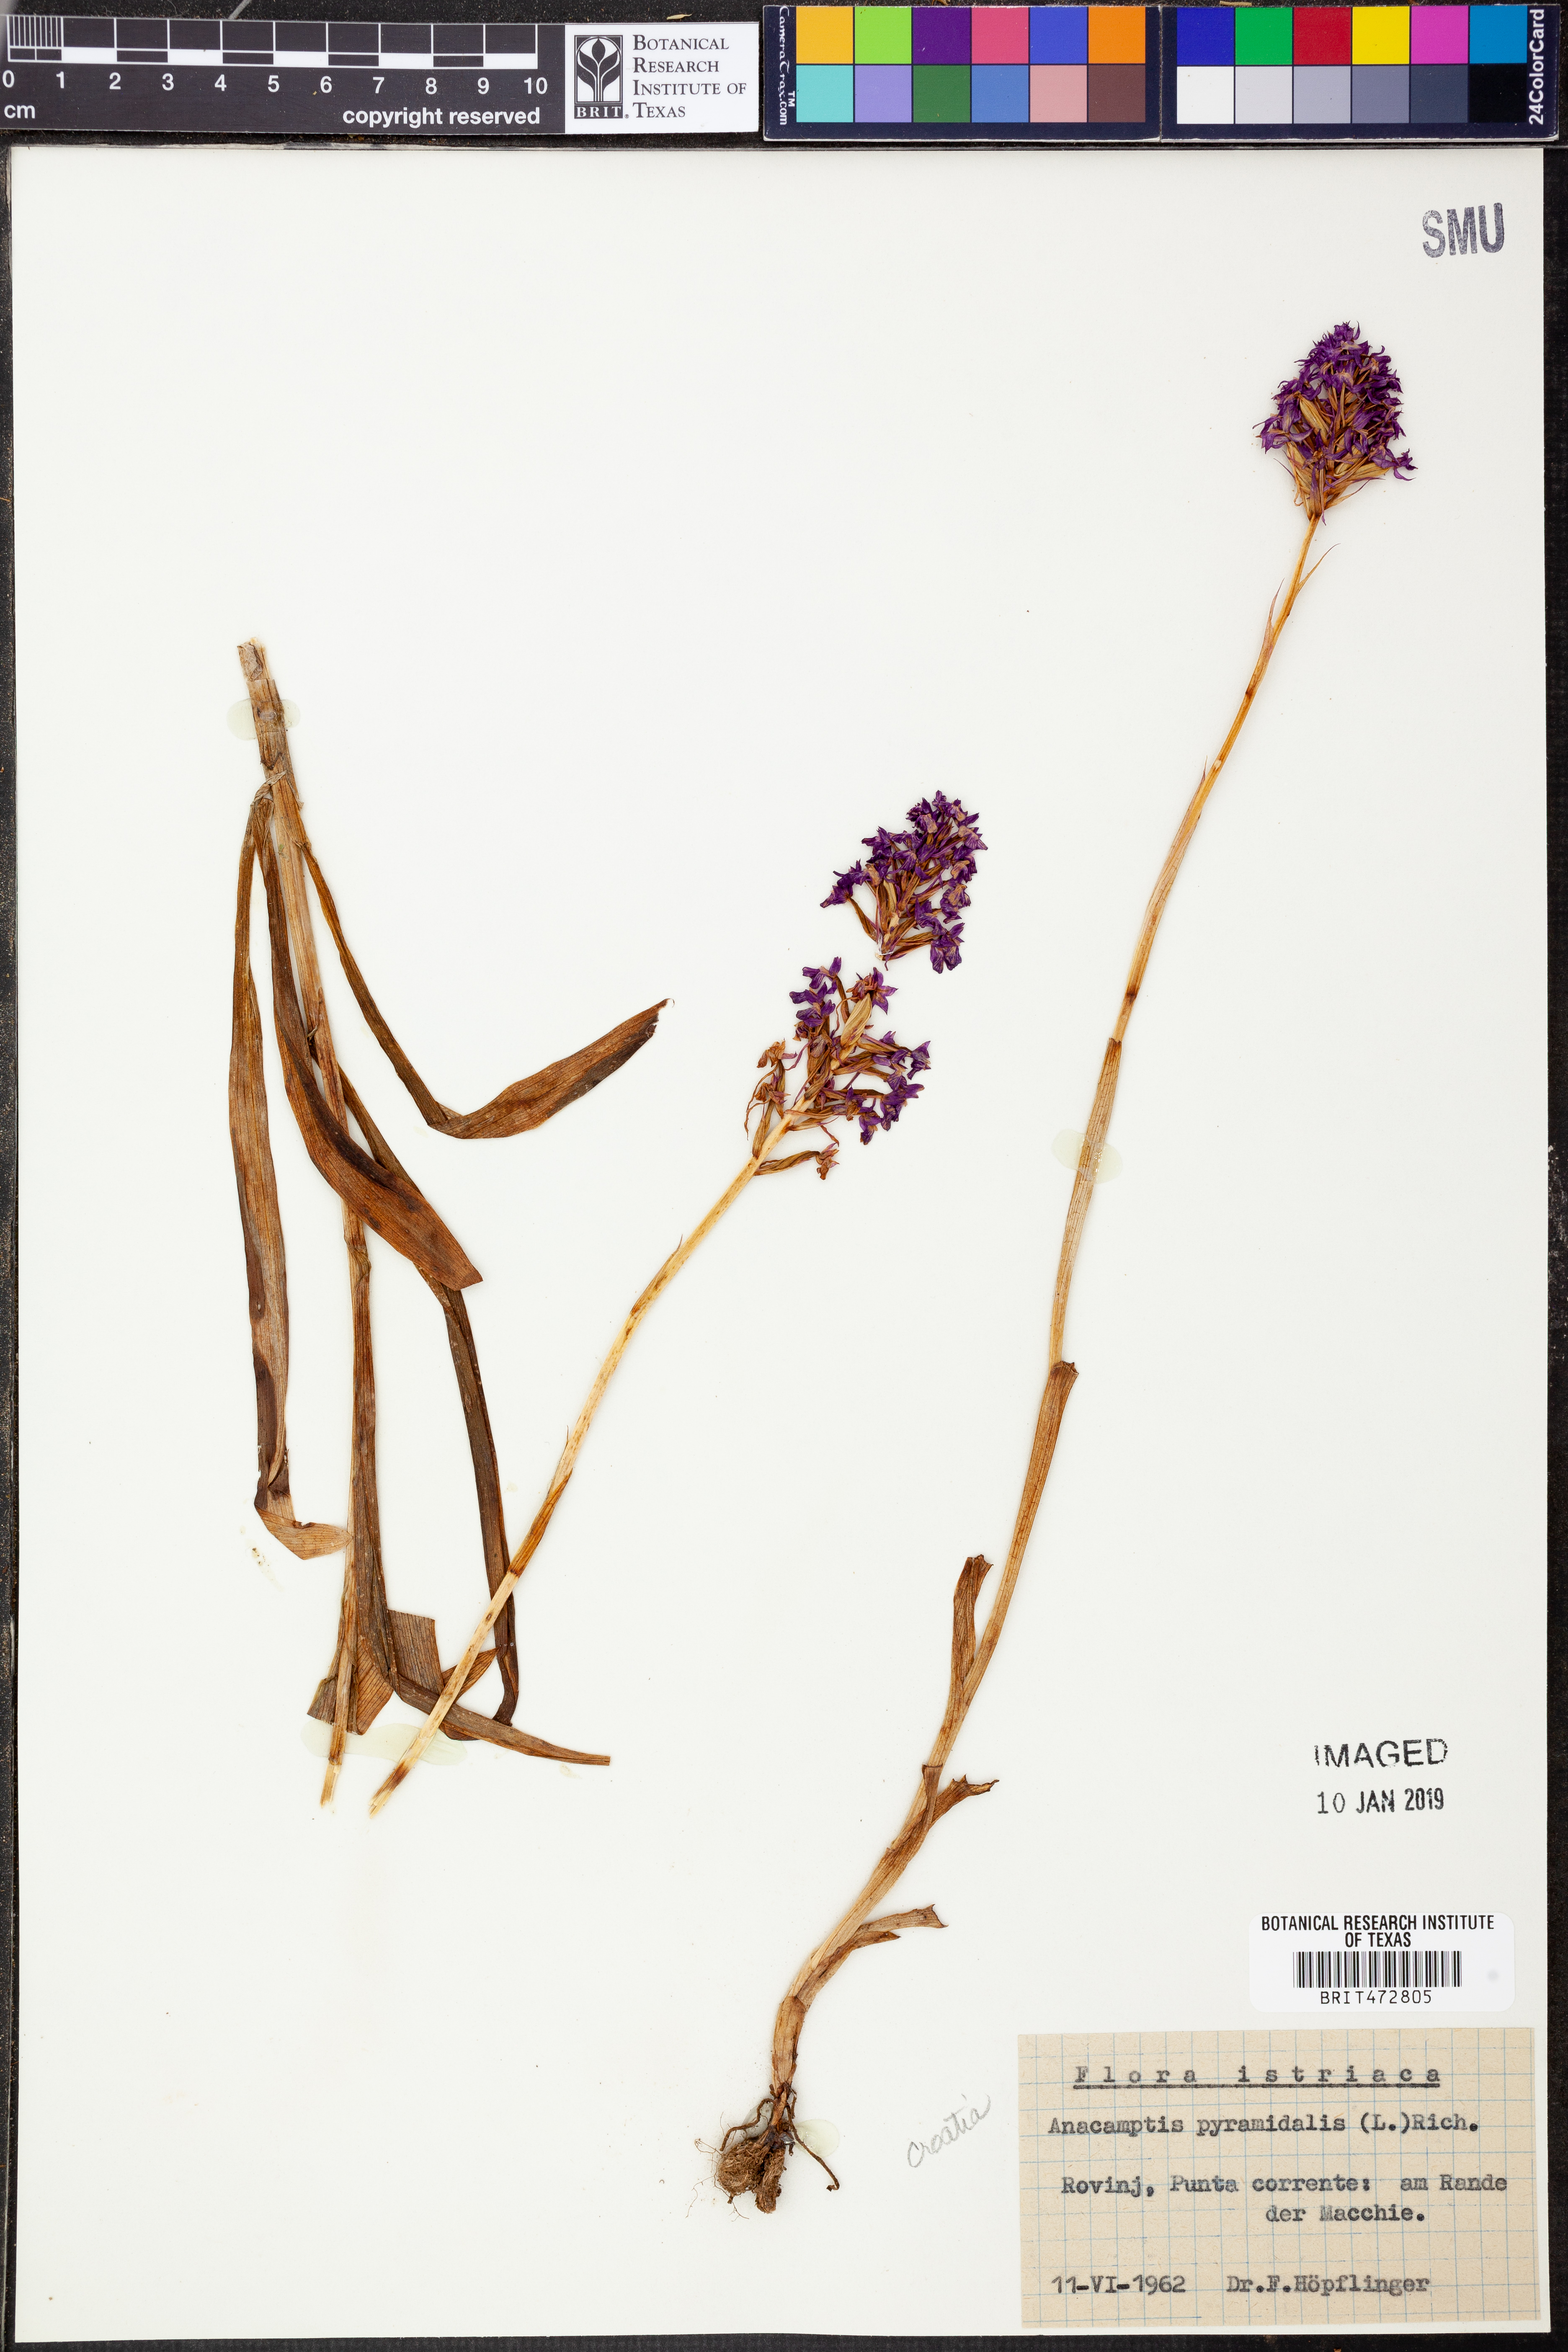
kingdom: Plantae
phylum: Tracheophyta
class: Liliopsida
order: Asparagales
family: Orchidaceae
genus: Anacamptis
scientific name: Anacamptis pyramidalis
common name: Pyramidal orchid
